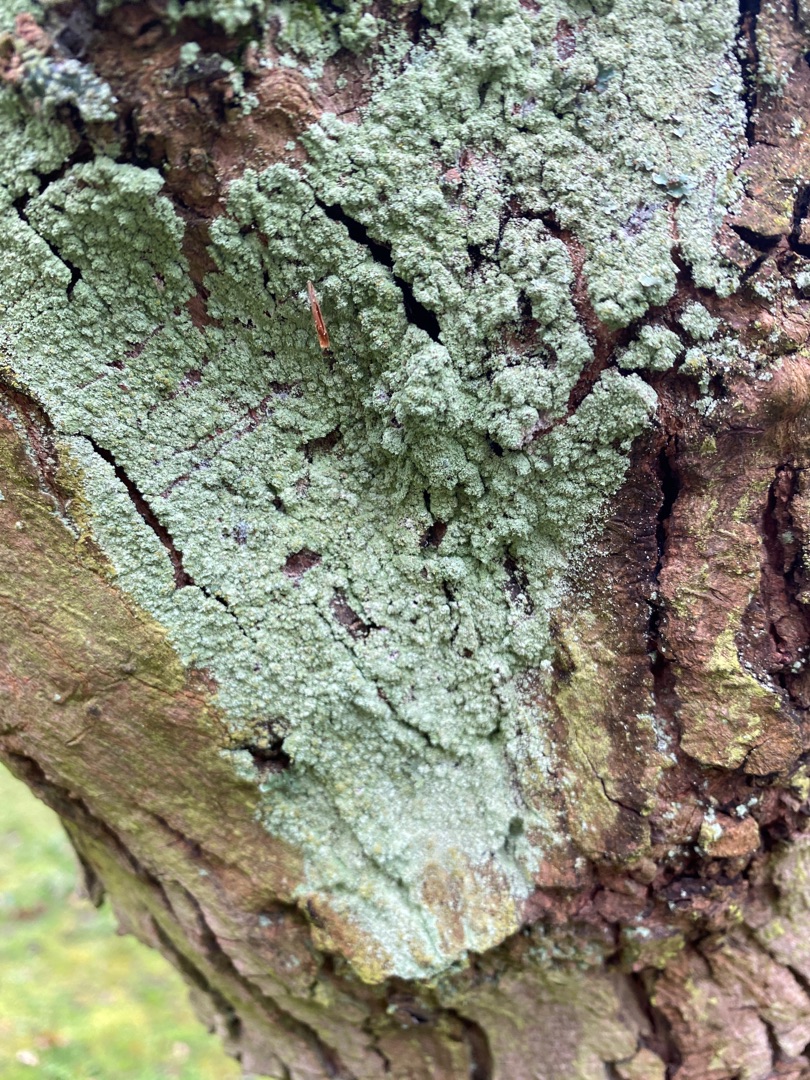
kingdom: Fungi
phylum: Ascomycota
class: Lecanoromycetes
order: Lecanorales
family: Stereocaulaceae
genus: Lepraria
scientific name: Lepraria
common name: Støvlav
